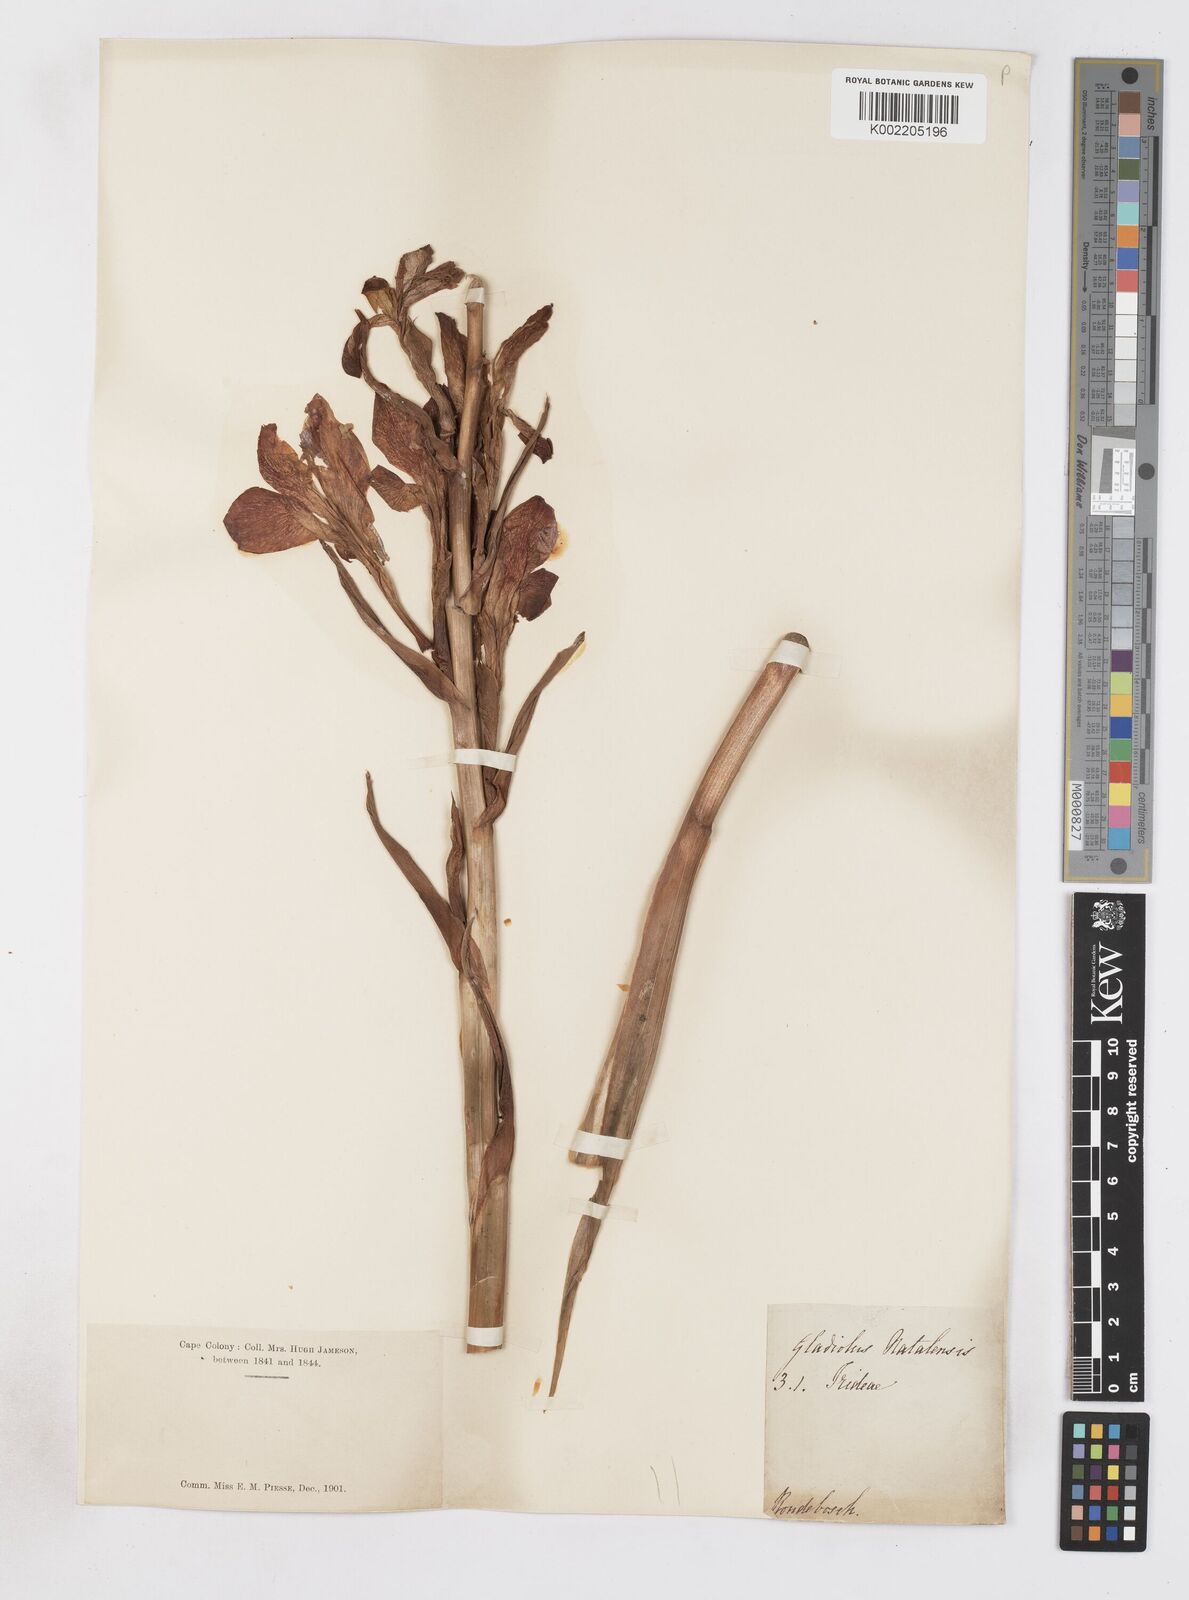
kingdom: Plantae
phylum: Tracheophyta
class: Liliopsida
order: Asparagales
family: Iridaceae
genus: Gladiolus
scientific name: Gladiolus dalenii
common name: Cornflag
